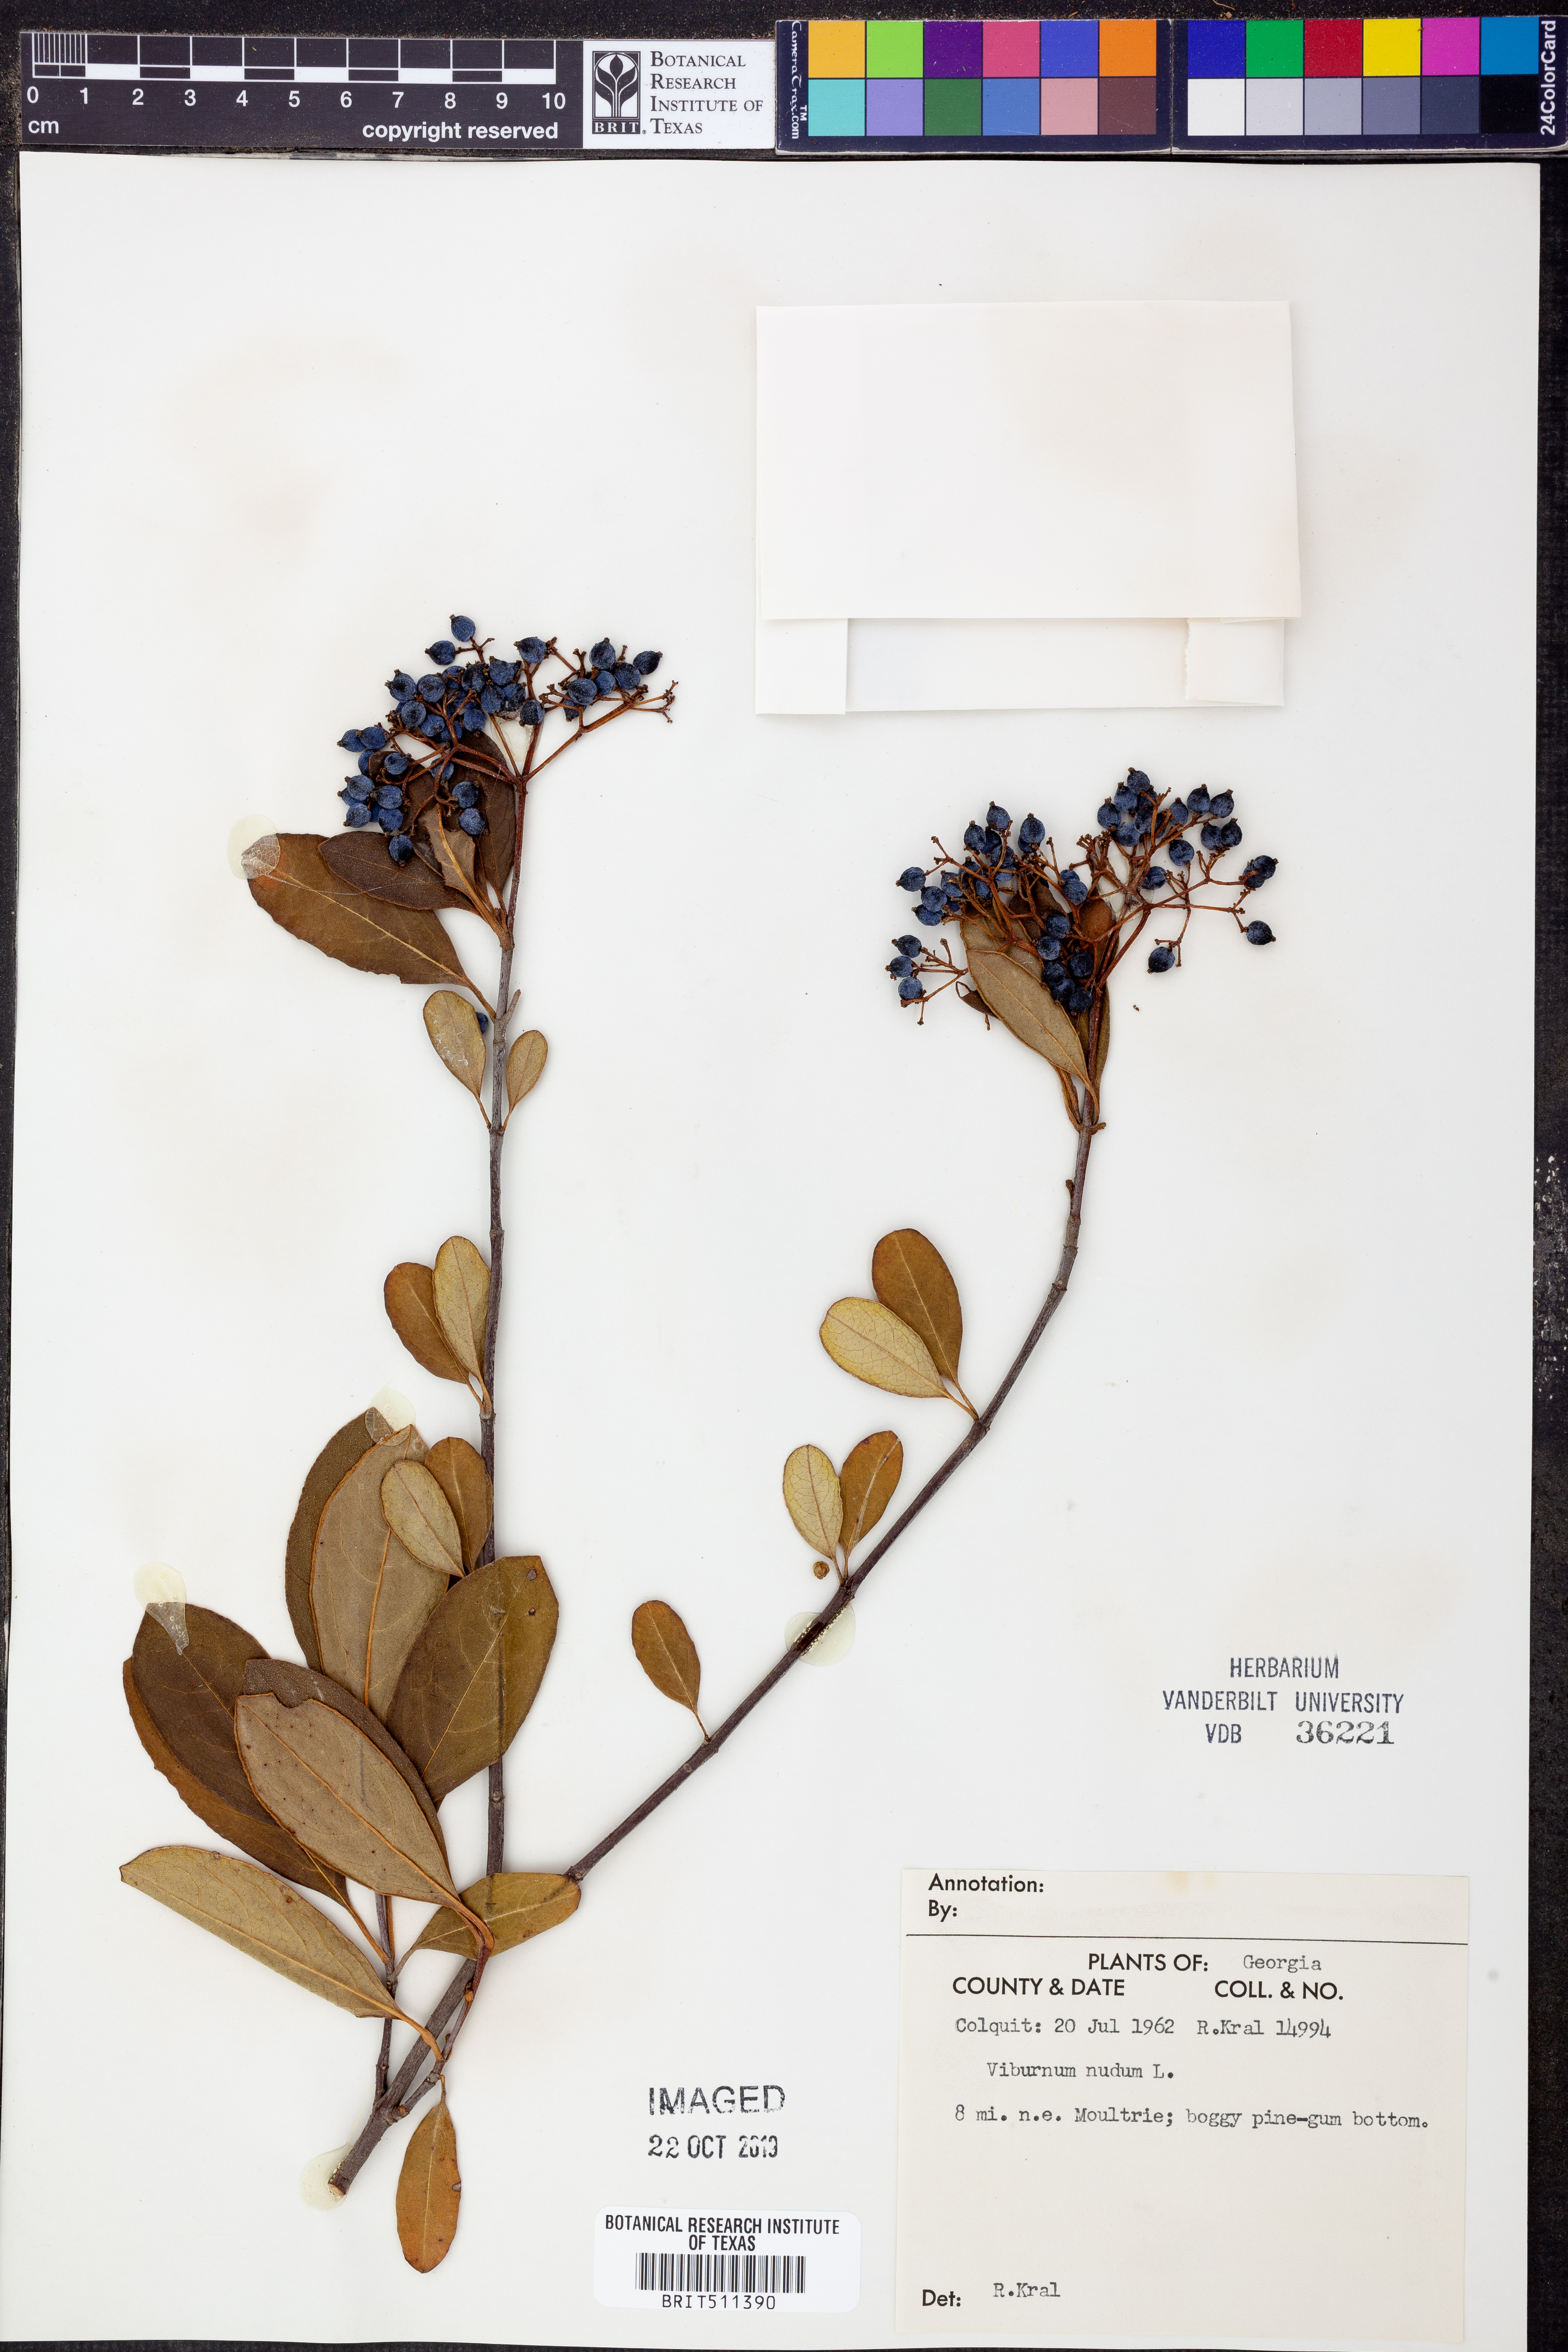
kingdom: Plantae
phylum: Tracheophyta
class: Magnoliopsida
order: Dipsacales
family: Viburnaceae
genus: Viburnum
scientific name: Viburnum nudum
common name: Possum haw
